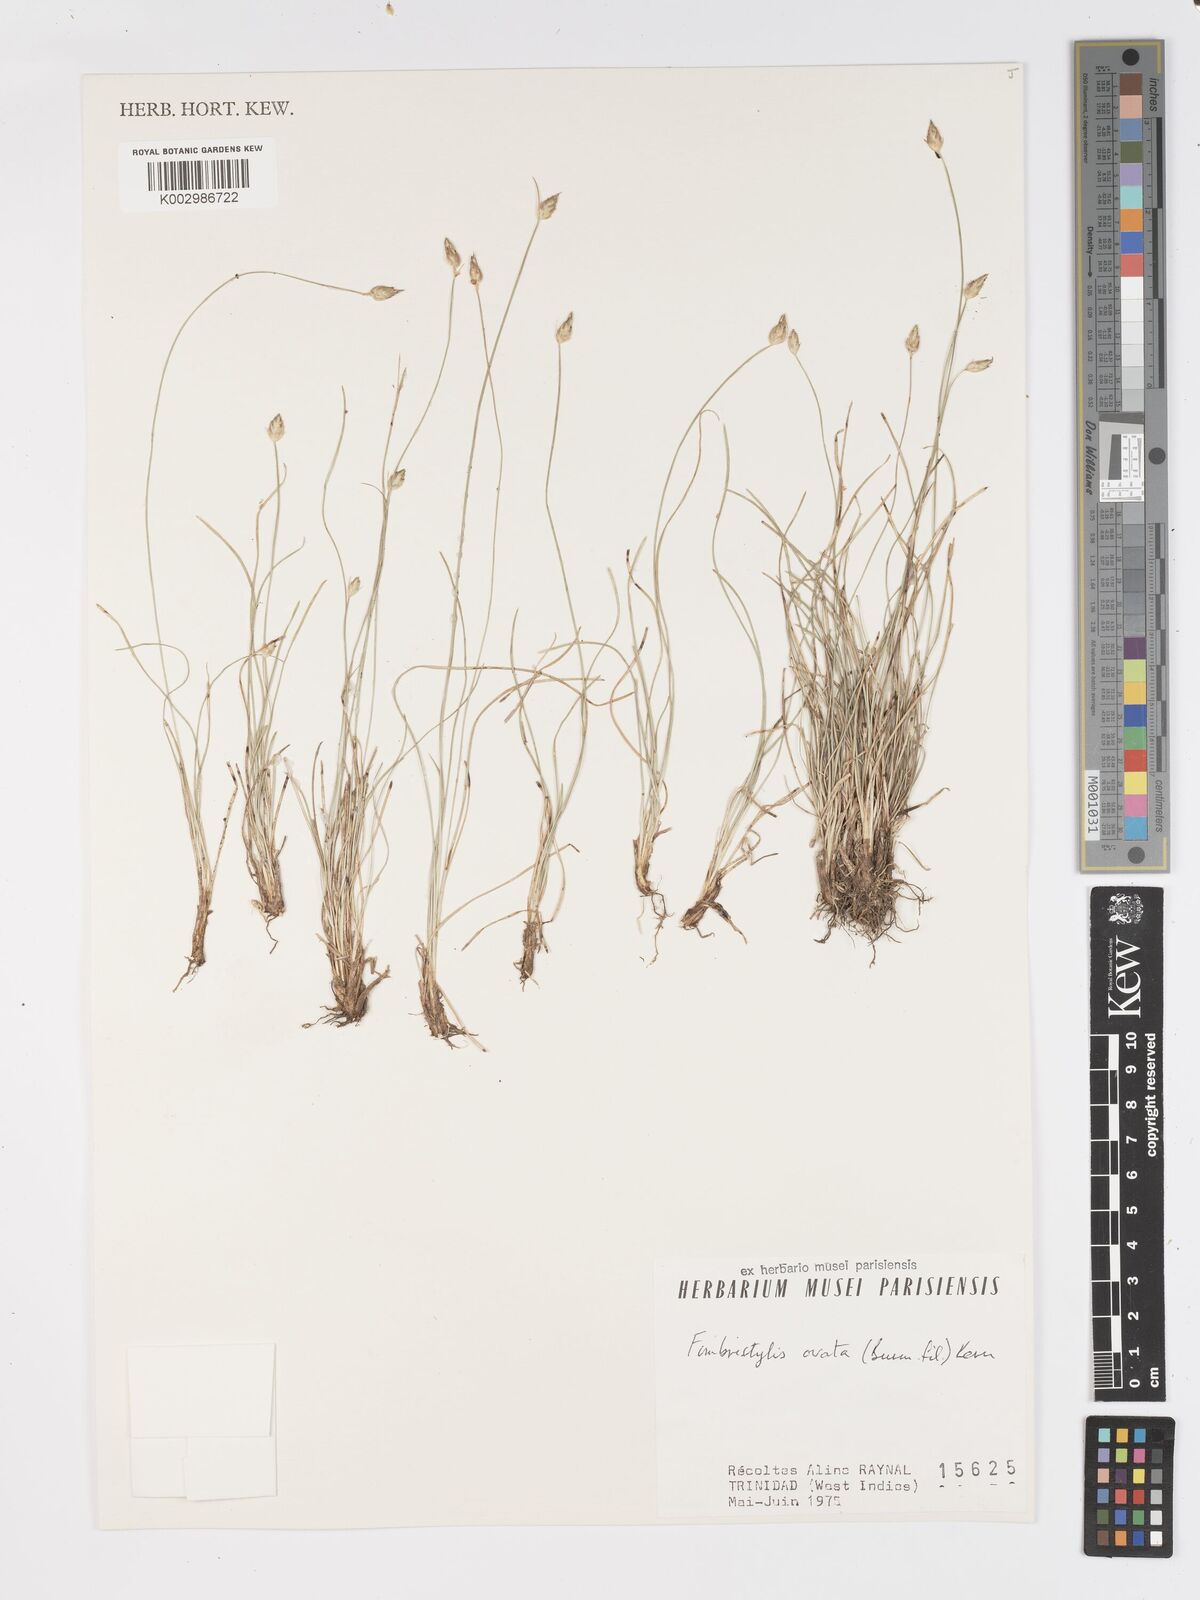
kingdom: Plantae
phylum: Tracheophyta
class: Liliopsida
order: Poales
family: Cyperaceae
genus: Fimbristylis
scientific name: Fimbristylis
